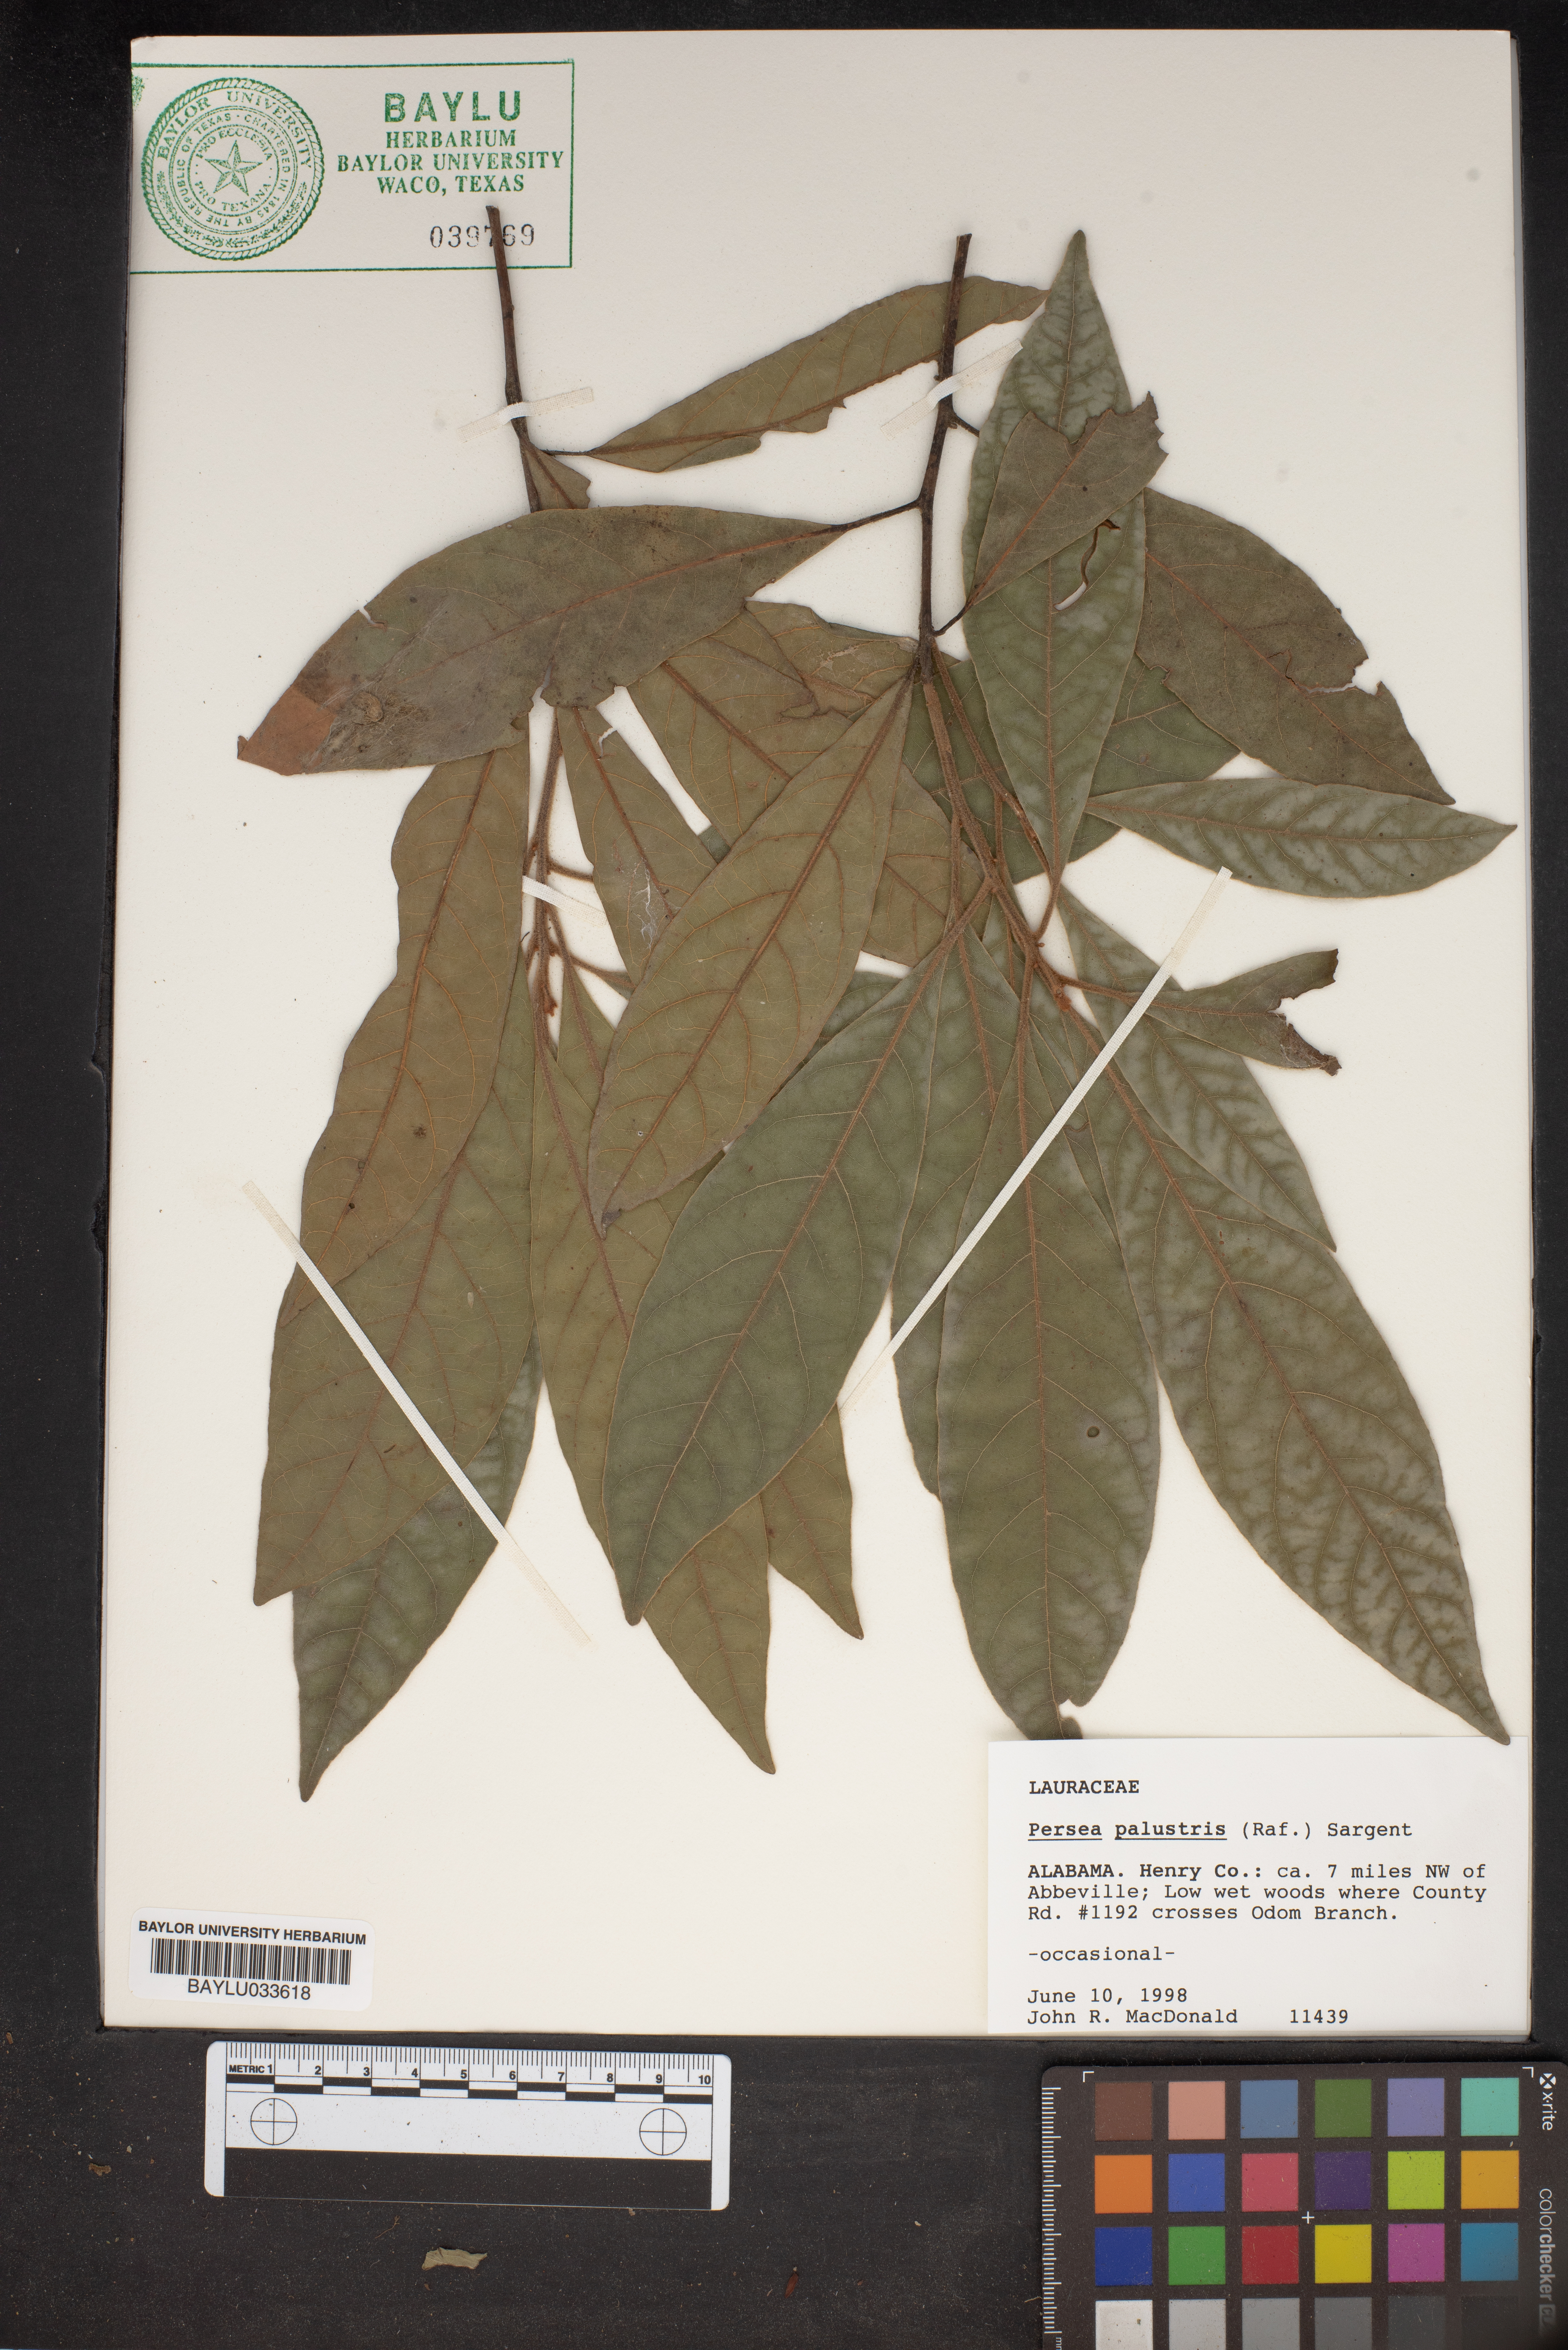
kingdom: Plantae
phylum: Tracheophyta
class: Magnoliopsida
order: Laurales
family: Lauraceae
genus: Persea
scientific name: Persea palustris
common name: Swampbay
